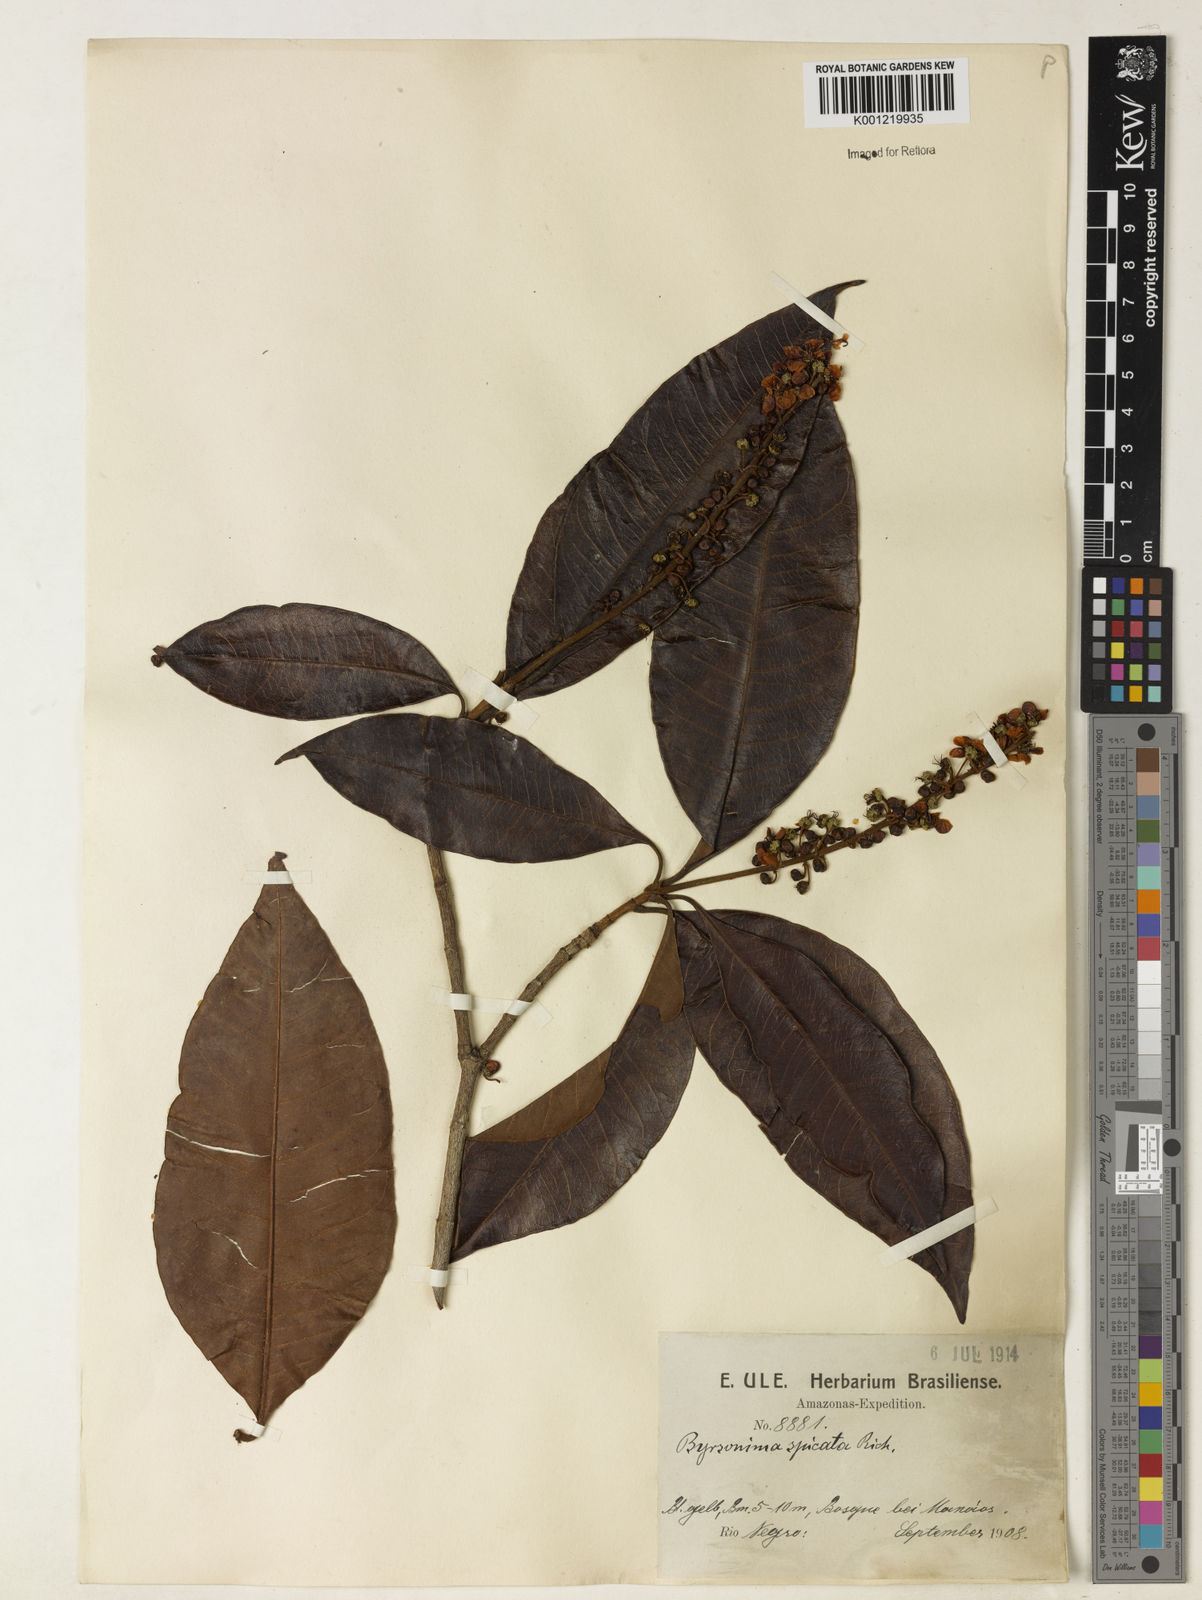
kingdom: Plantae
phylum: Tracheophyta
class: Magnoliopsida
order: Malpighiales
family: Malpighiaceae
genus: Byrsonima
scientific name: Byrsonima
